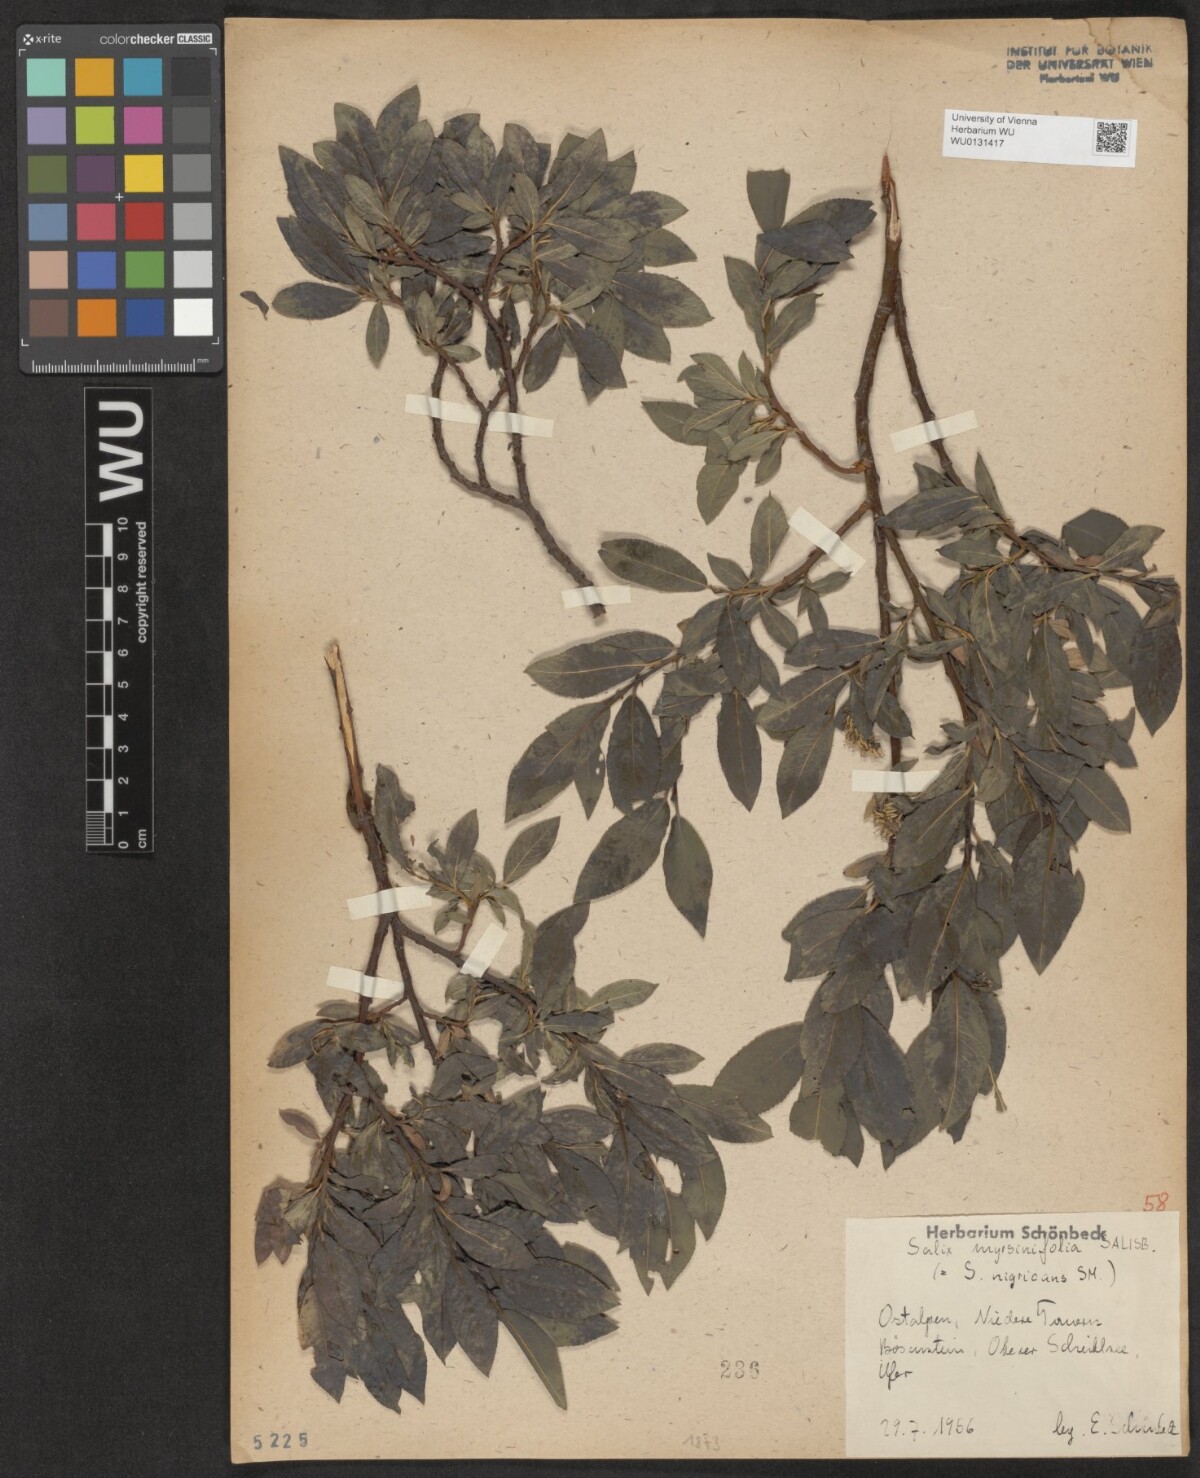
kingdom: Plantae
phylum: Tracheophyta
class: Magnoliopsida
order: Malpighiales
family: Salicaceae
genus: Salix
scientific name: Salix myrsinifolia
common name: Dark-leaved willow
